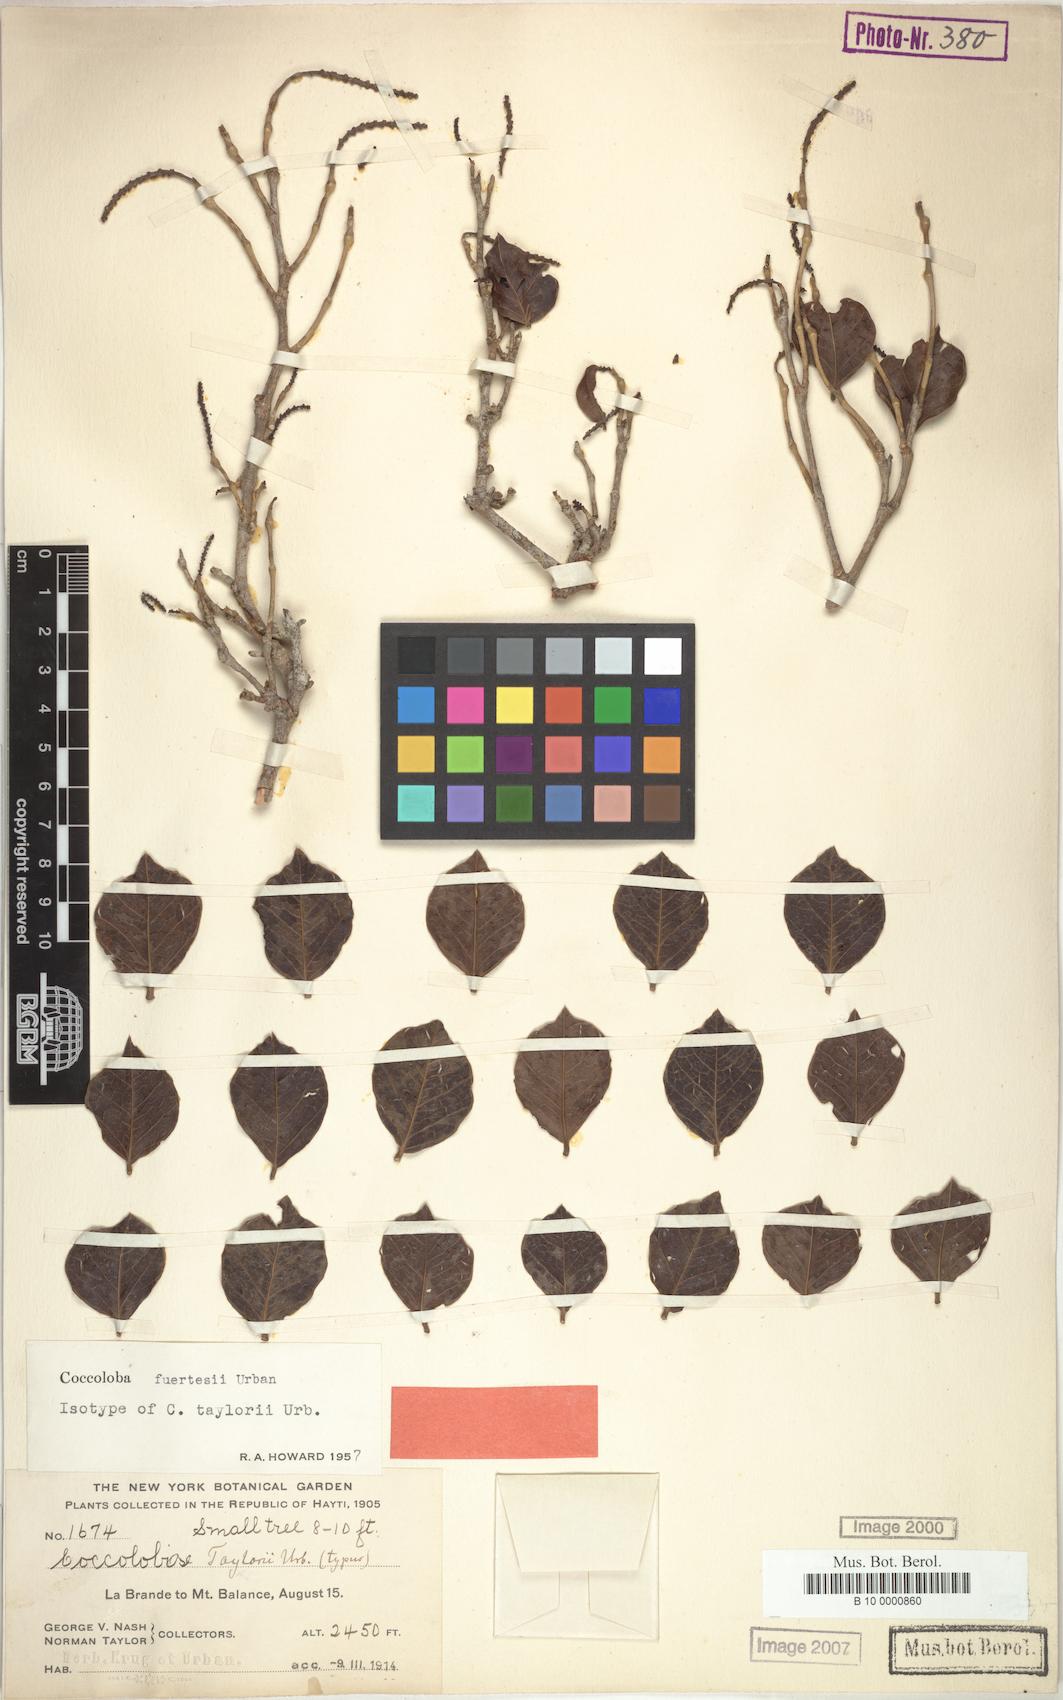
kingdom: Plantae
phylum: Tracheophyta
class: Magnoliopsida
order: Caryophyllales
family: Polygonaceae
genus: Coccoloba
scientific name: Coccoloba fuertesii
